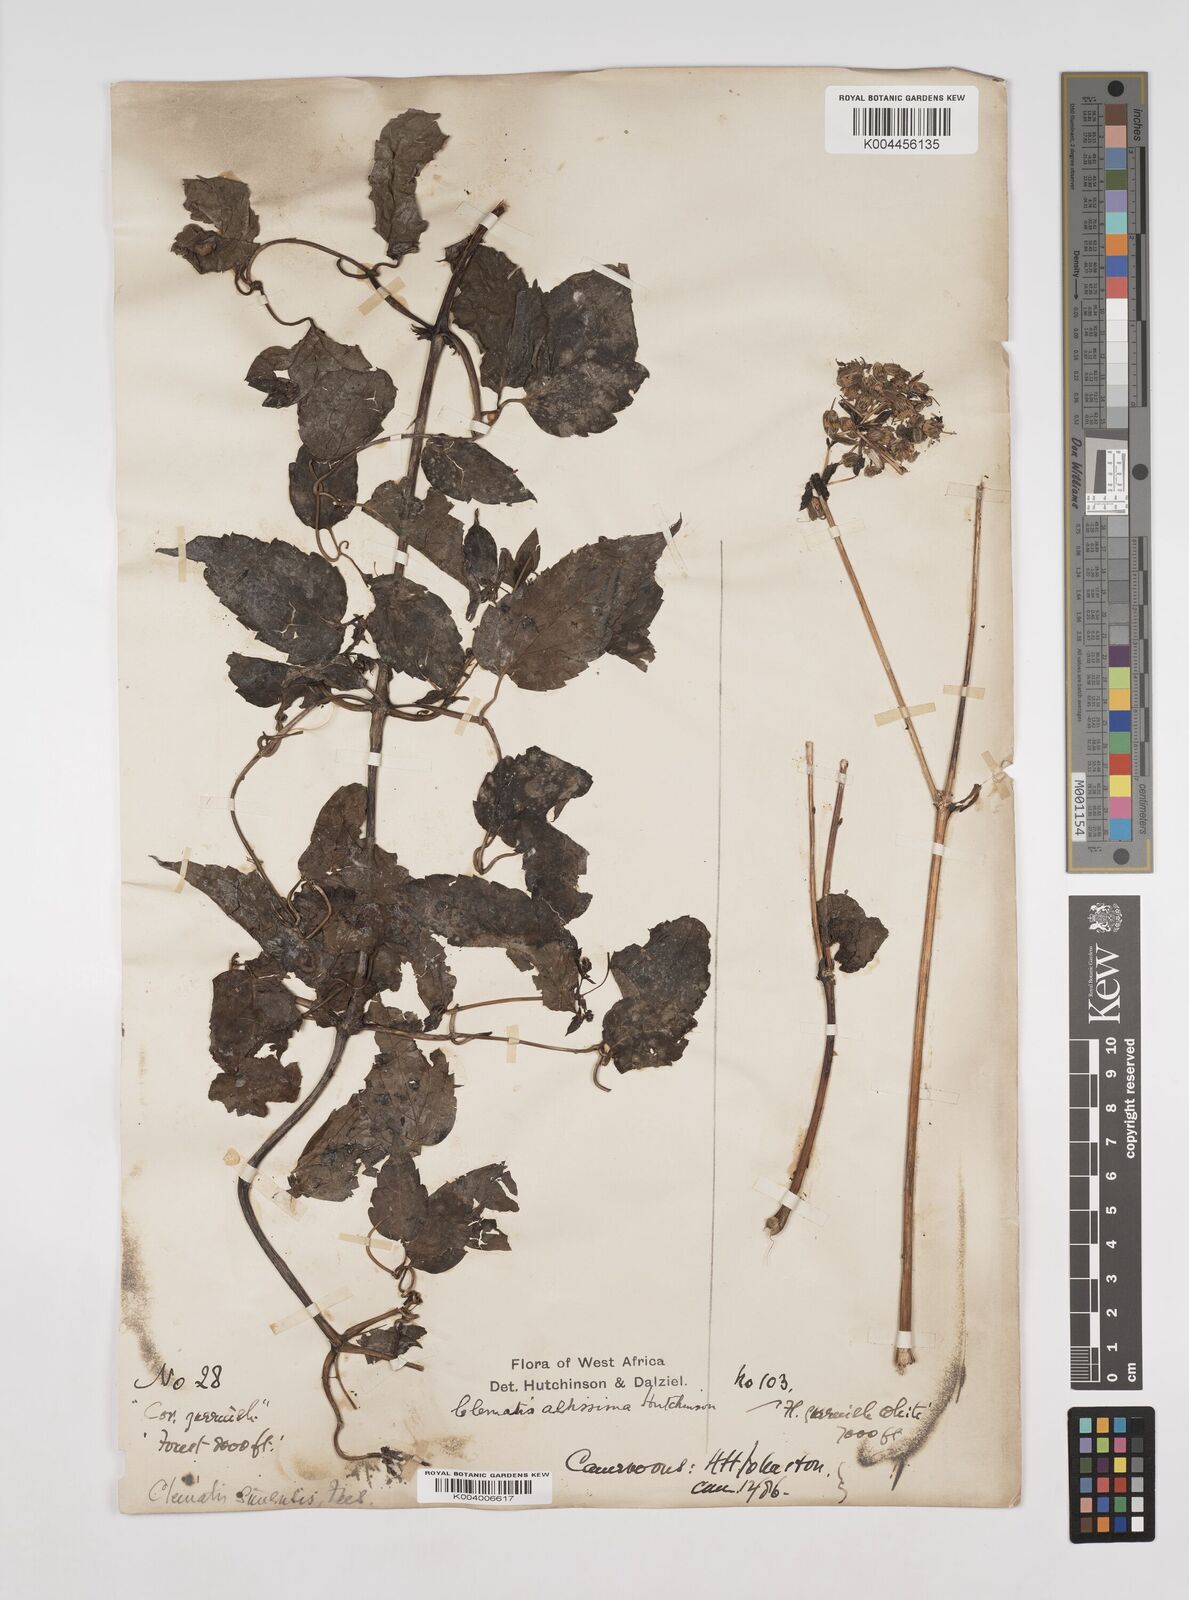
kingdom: Plantae
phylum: Tracheophyta
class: Magnoliopsida
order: Ranunculales
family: Ranunculaceae
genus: Clematis
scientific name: Clematis simensis
